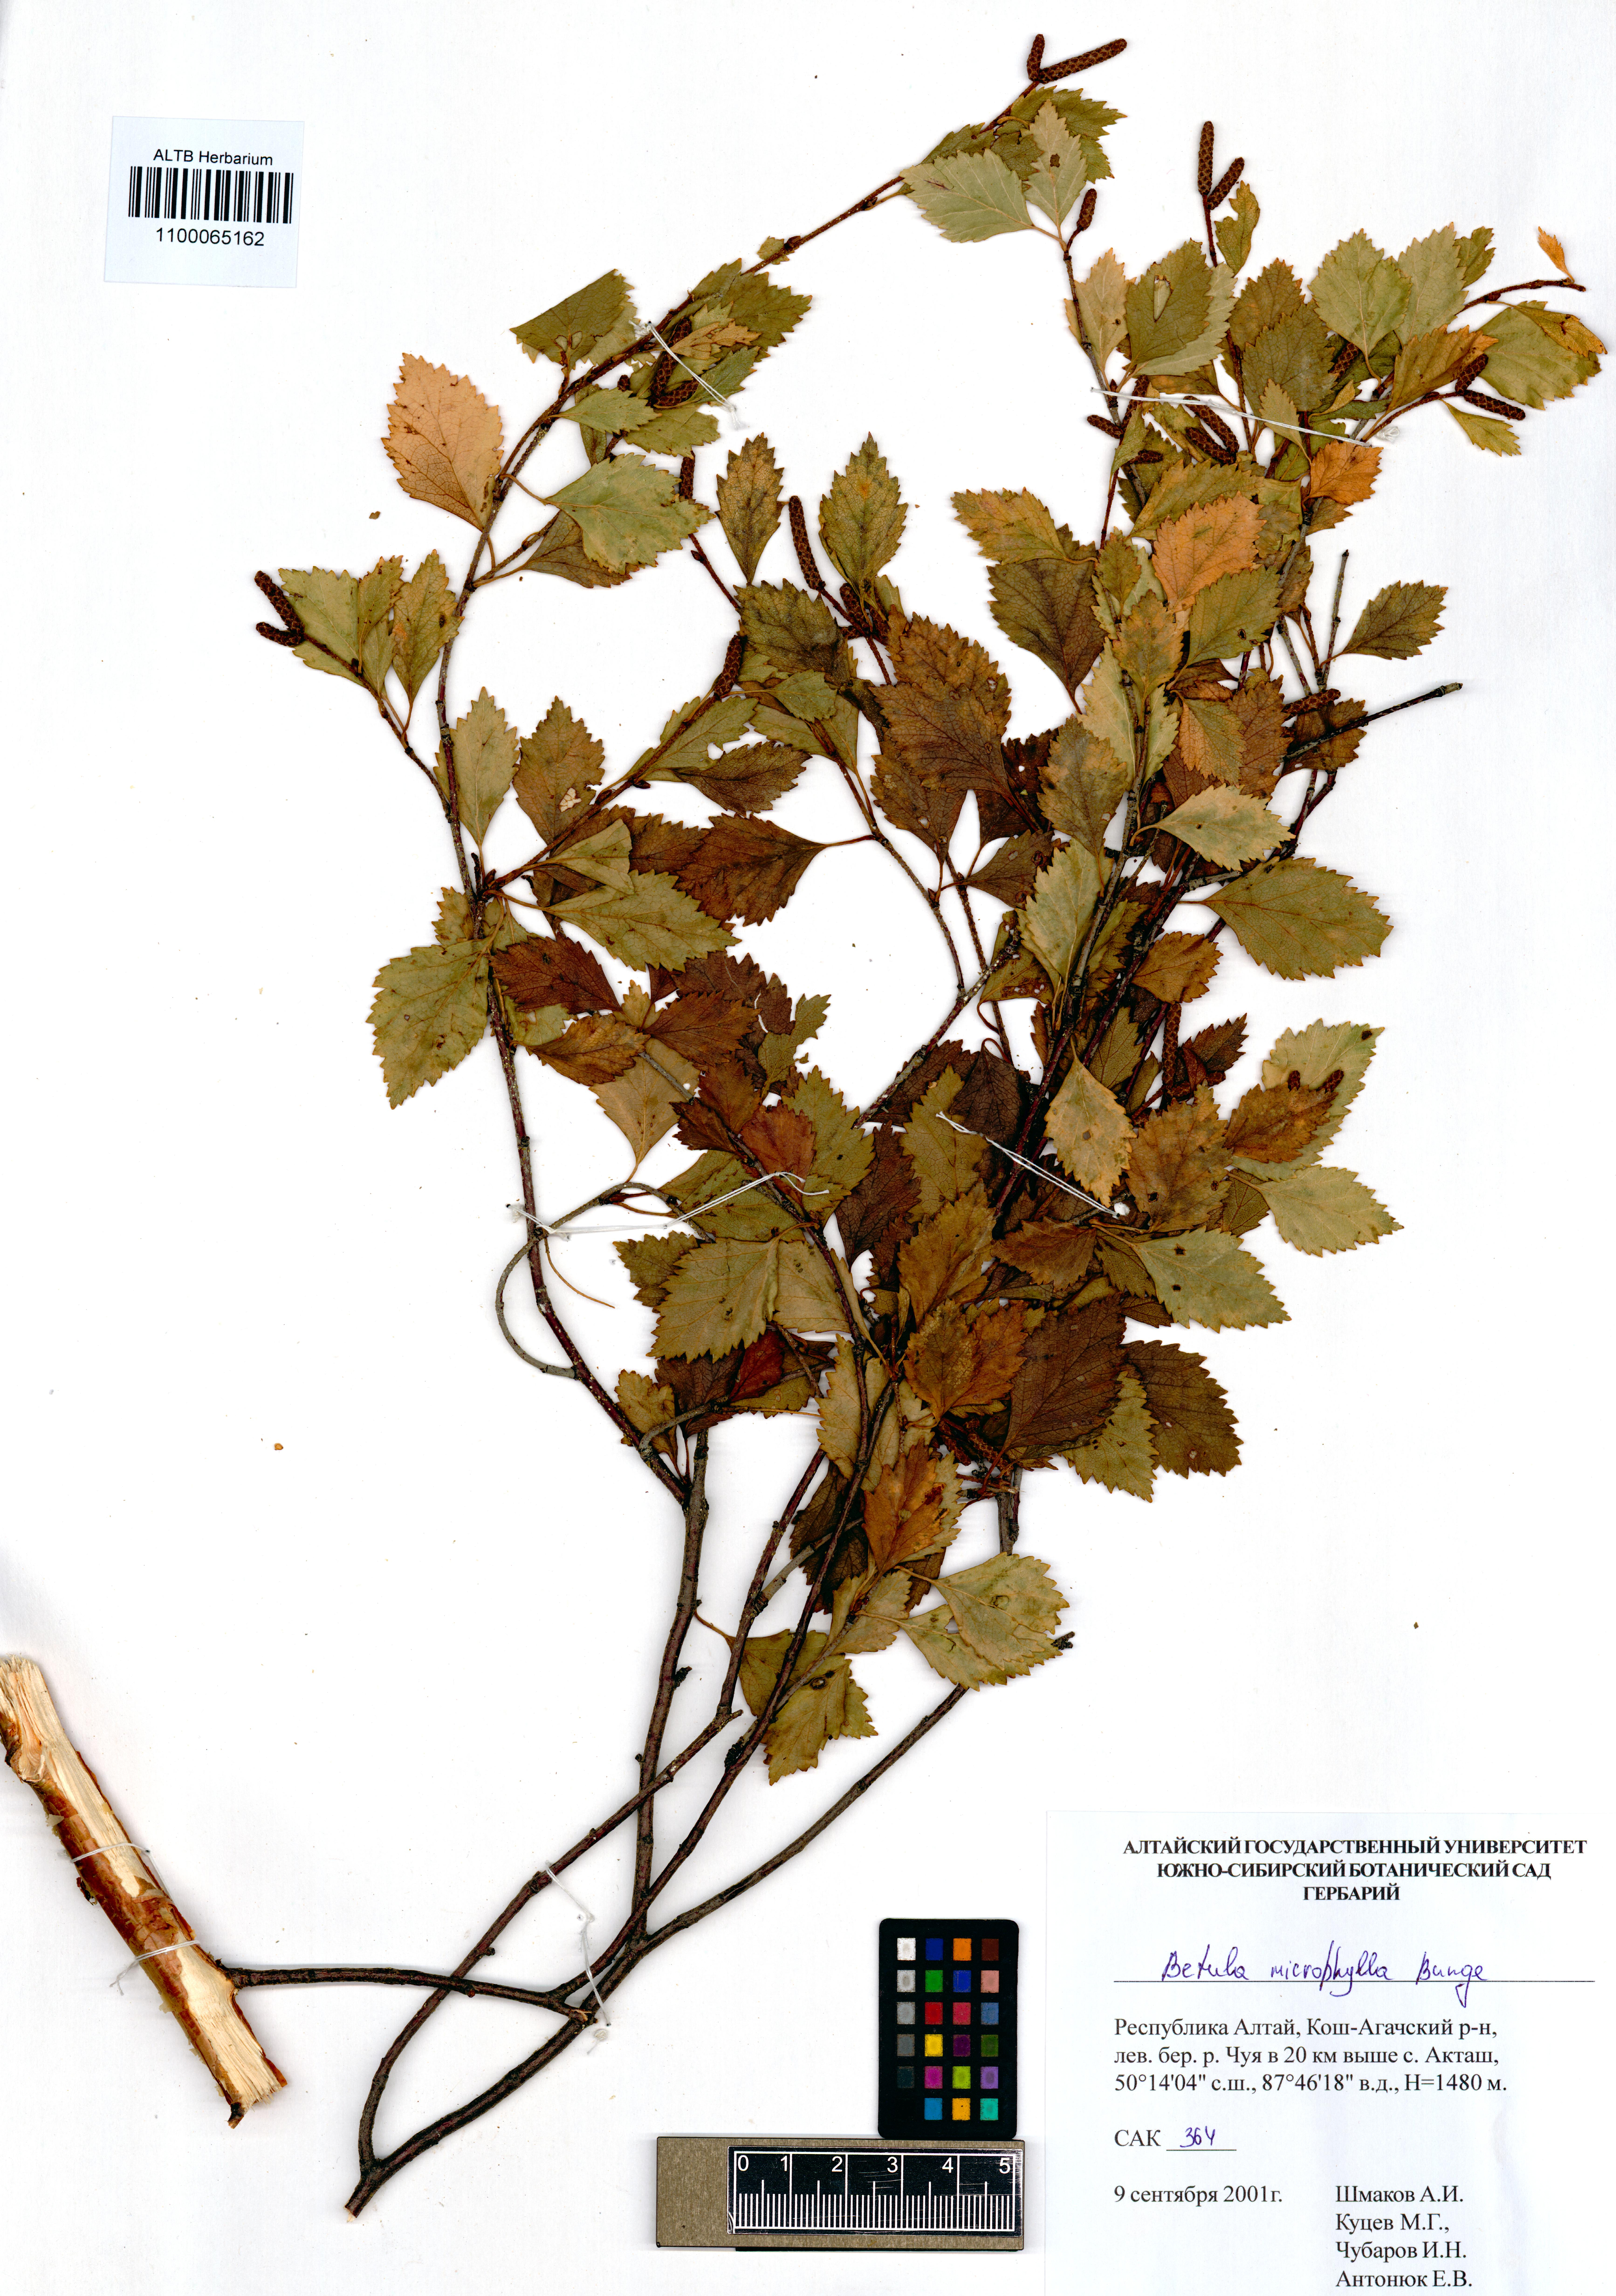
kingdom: Plantae
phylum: Tracheophyta
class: Magnoliopsida
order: Fagales
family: Betulaceae
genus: Betula
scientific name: Betula microphylla
